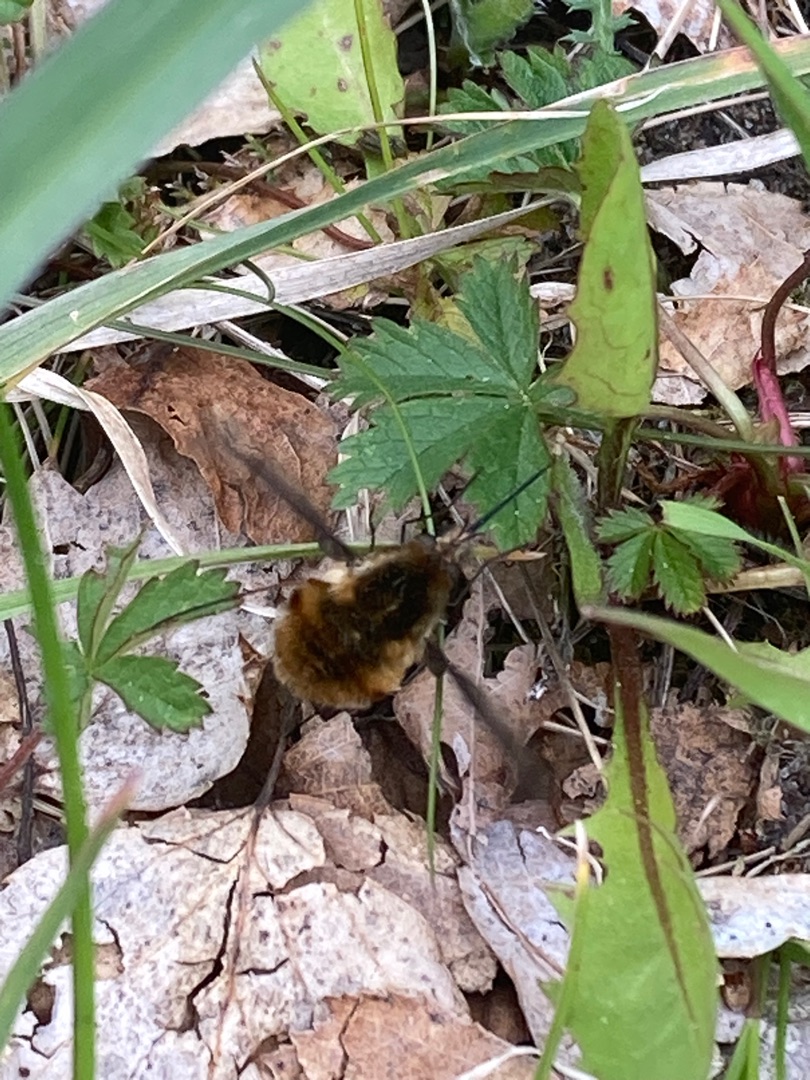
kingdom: Animalia
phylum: Arthropoda
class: Insecta
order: Diptera
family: Bombyliidae
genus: Bombylius
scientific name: Bombylius major
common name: Stor humleflue
